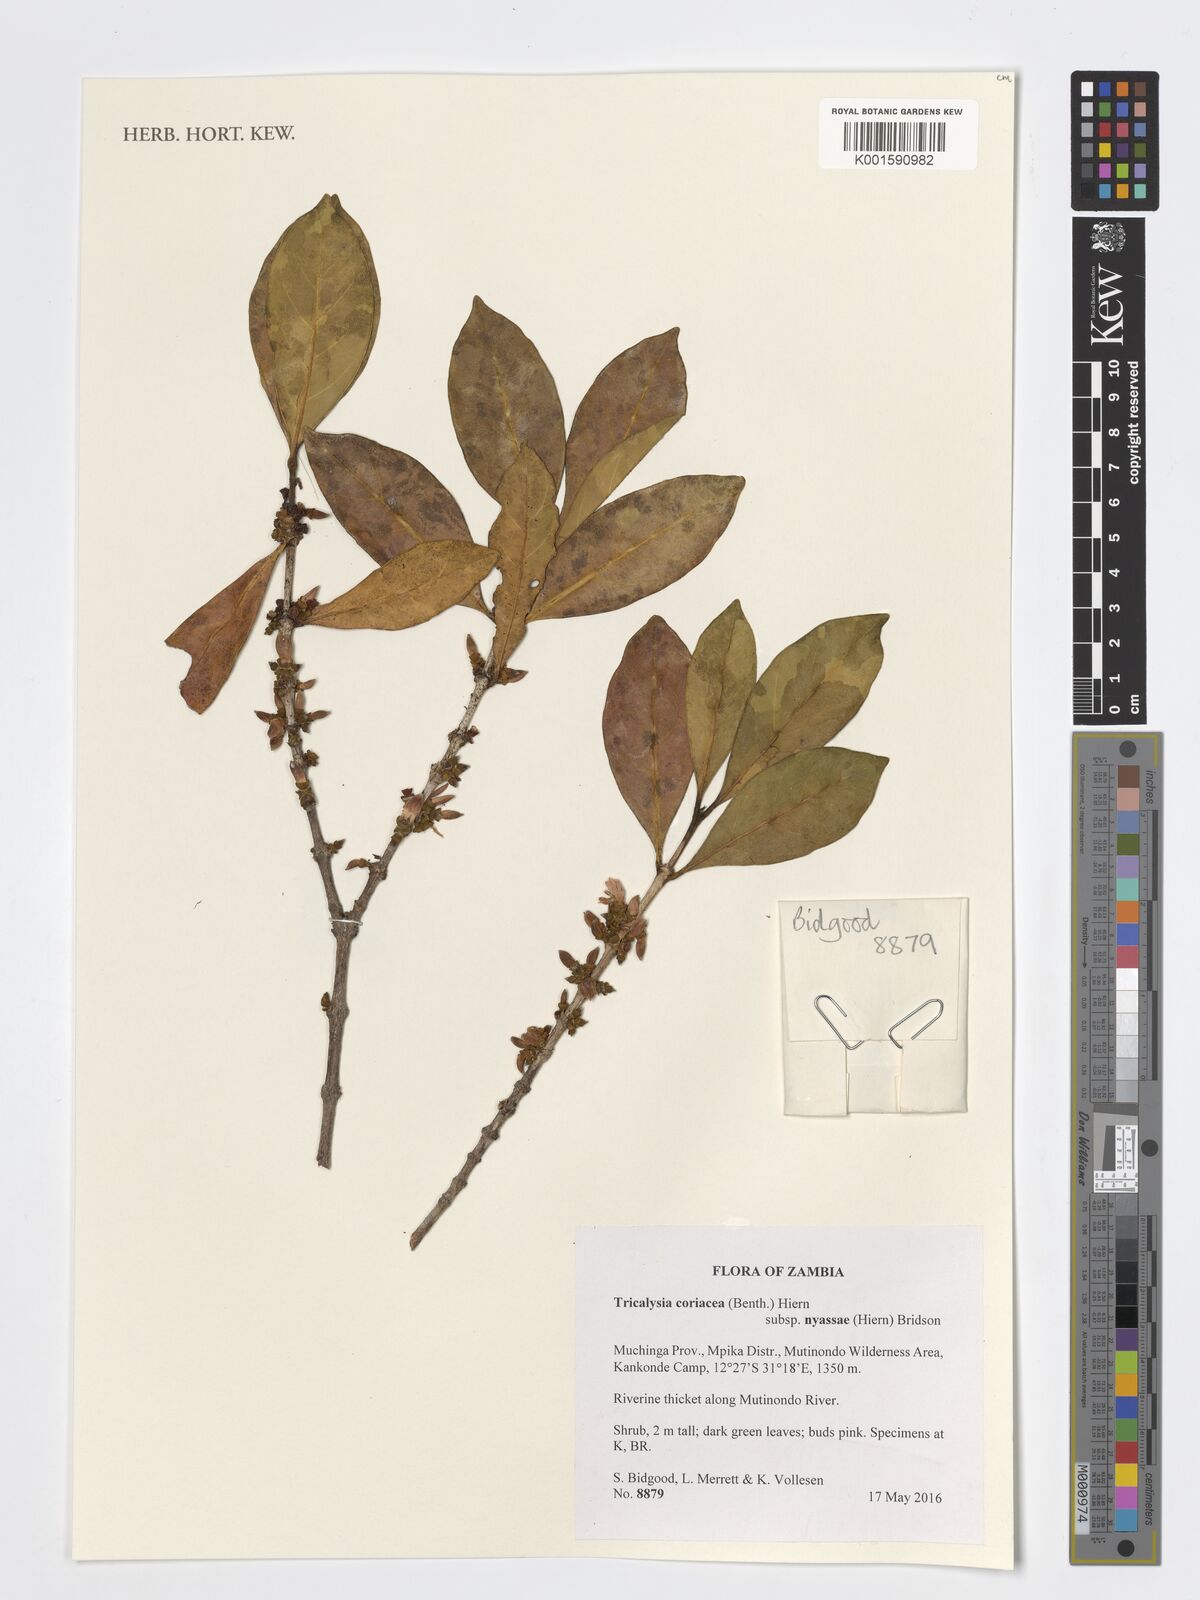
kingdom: Plantae
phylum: Tracheophyta
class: Magnoliopsida
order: Gentianales
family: Rubiaceae
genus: Tricalysia
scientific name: Tricalysia coriacea
